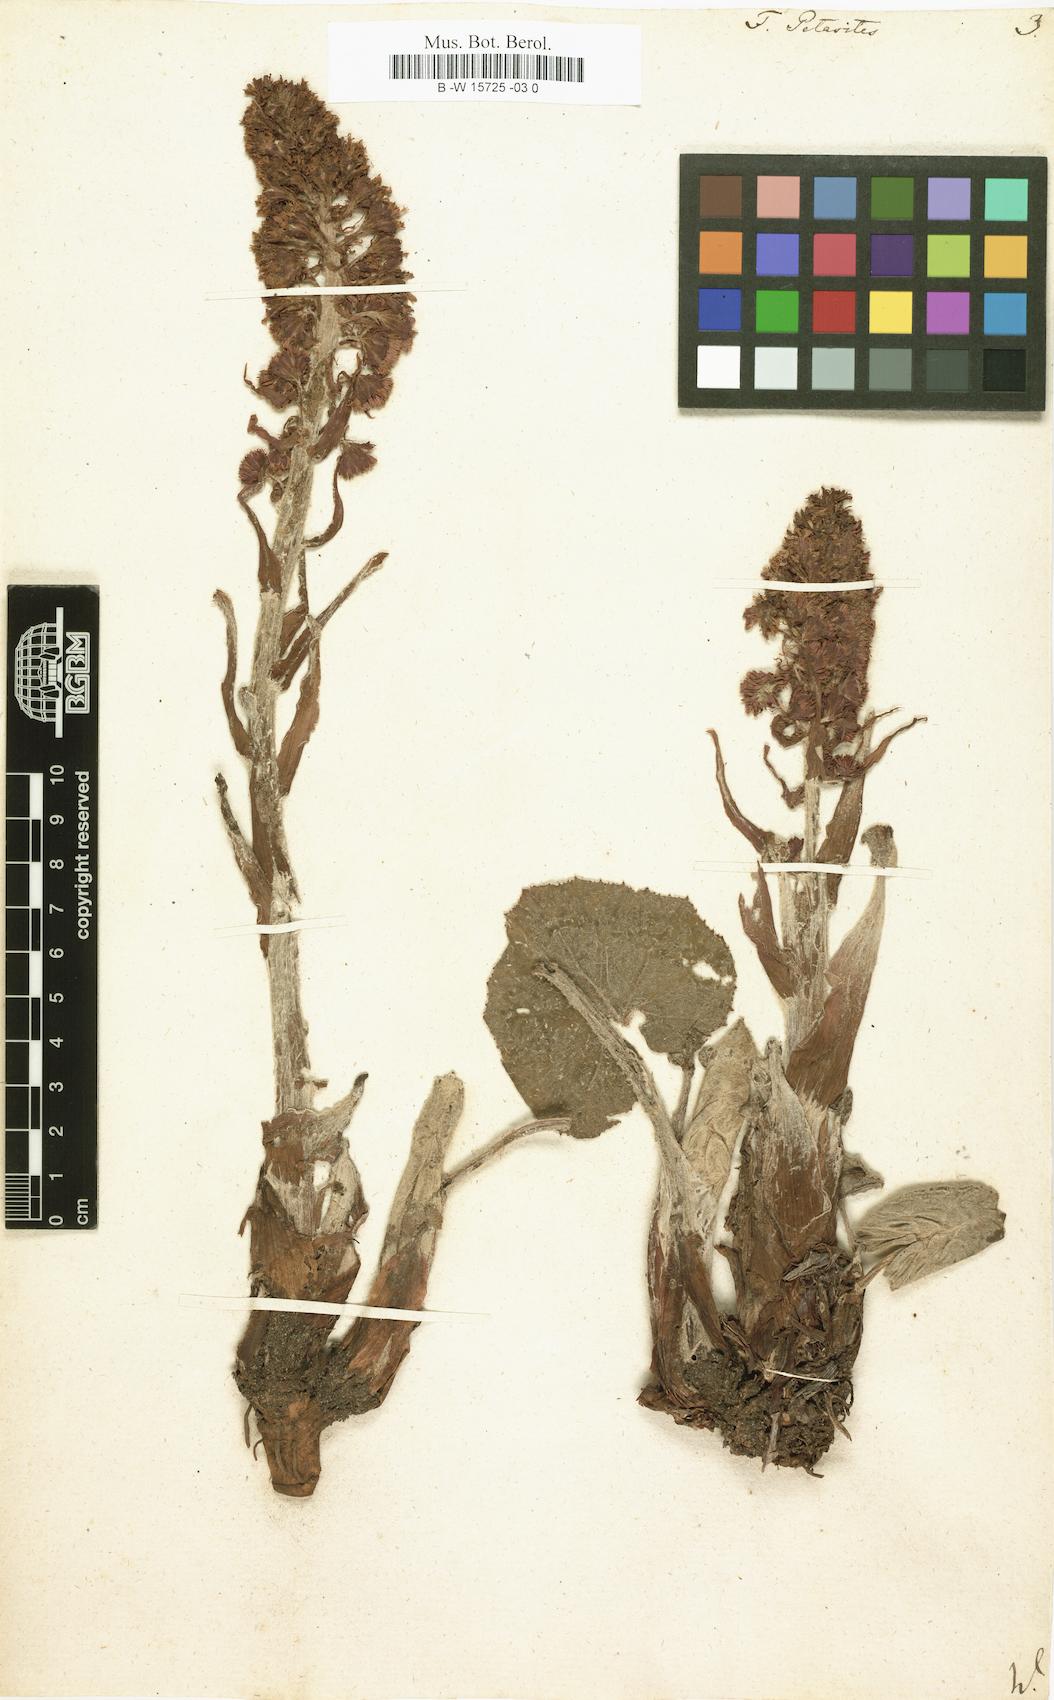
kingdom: Plantae
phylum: Tracheophyta
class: Magnoliopsida
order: Asterales
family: Asteraceae
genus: Petasites
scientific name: Petasites japonicus
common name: Giant butterbur
